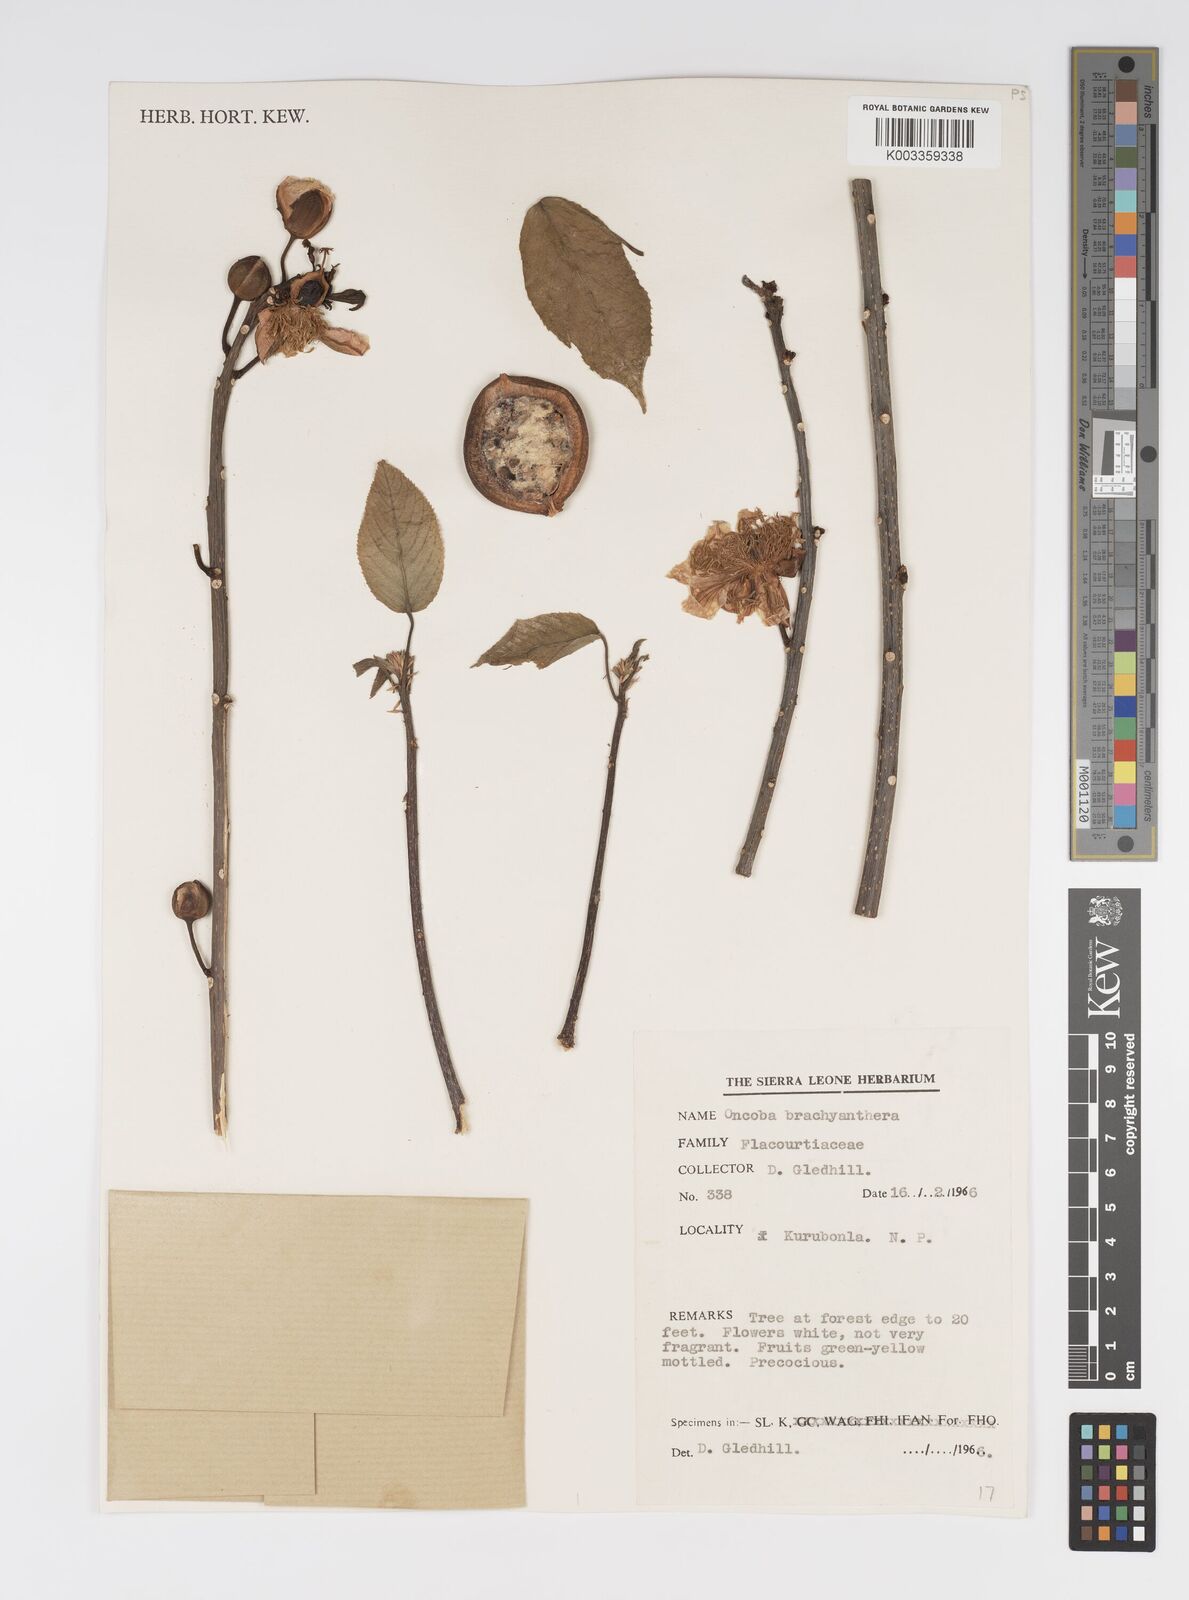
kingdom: Plantae
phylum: Tracheophyta
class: Magnoliopsida
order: Malpighiales
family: Salicaceae
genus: Oncoba
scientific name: Oncoba brachyanthera
